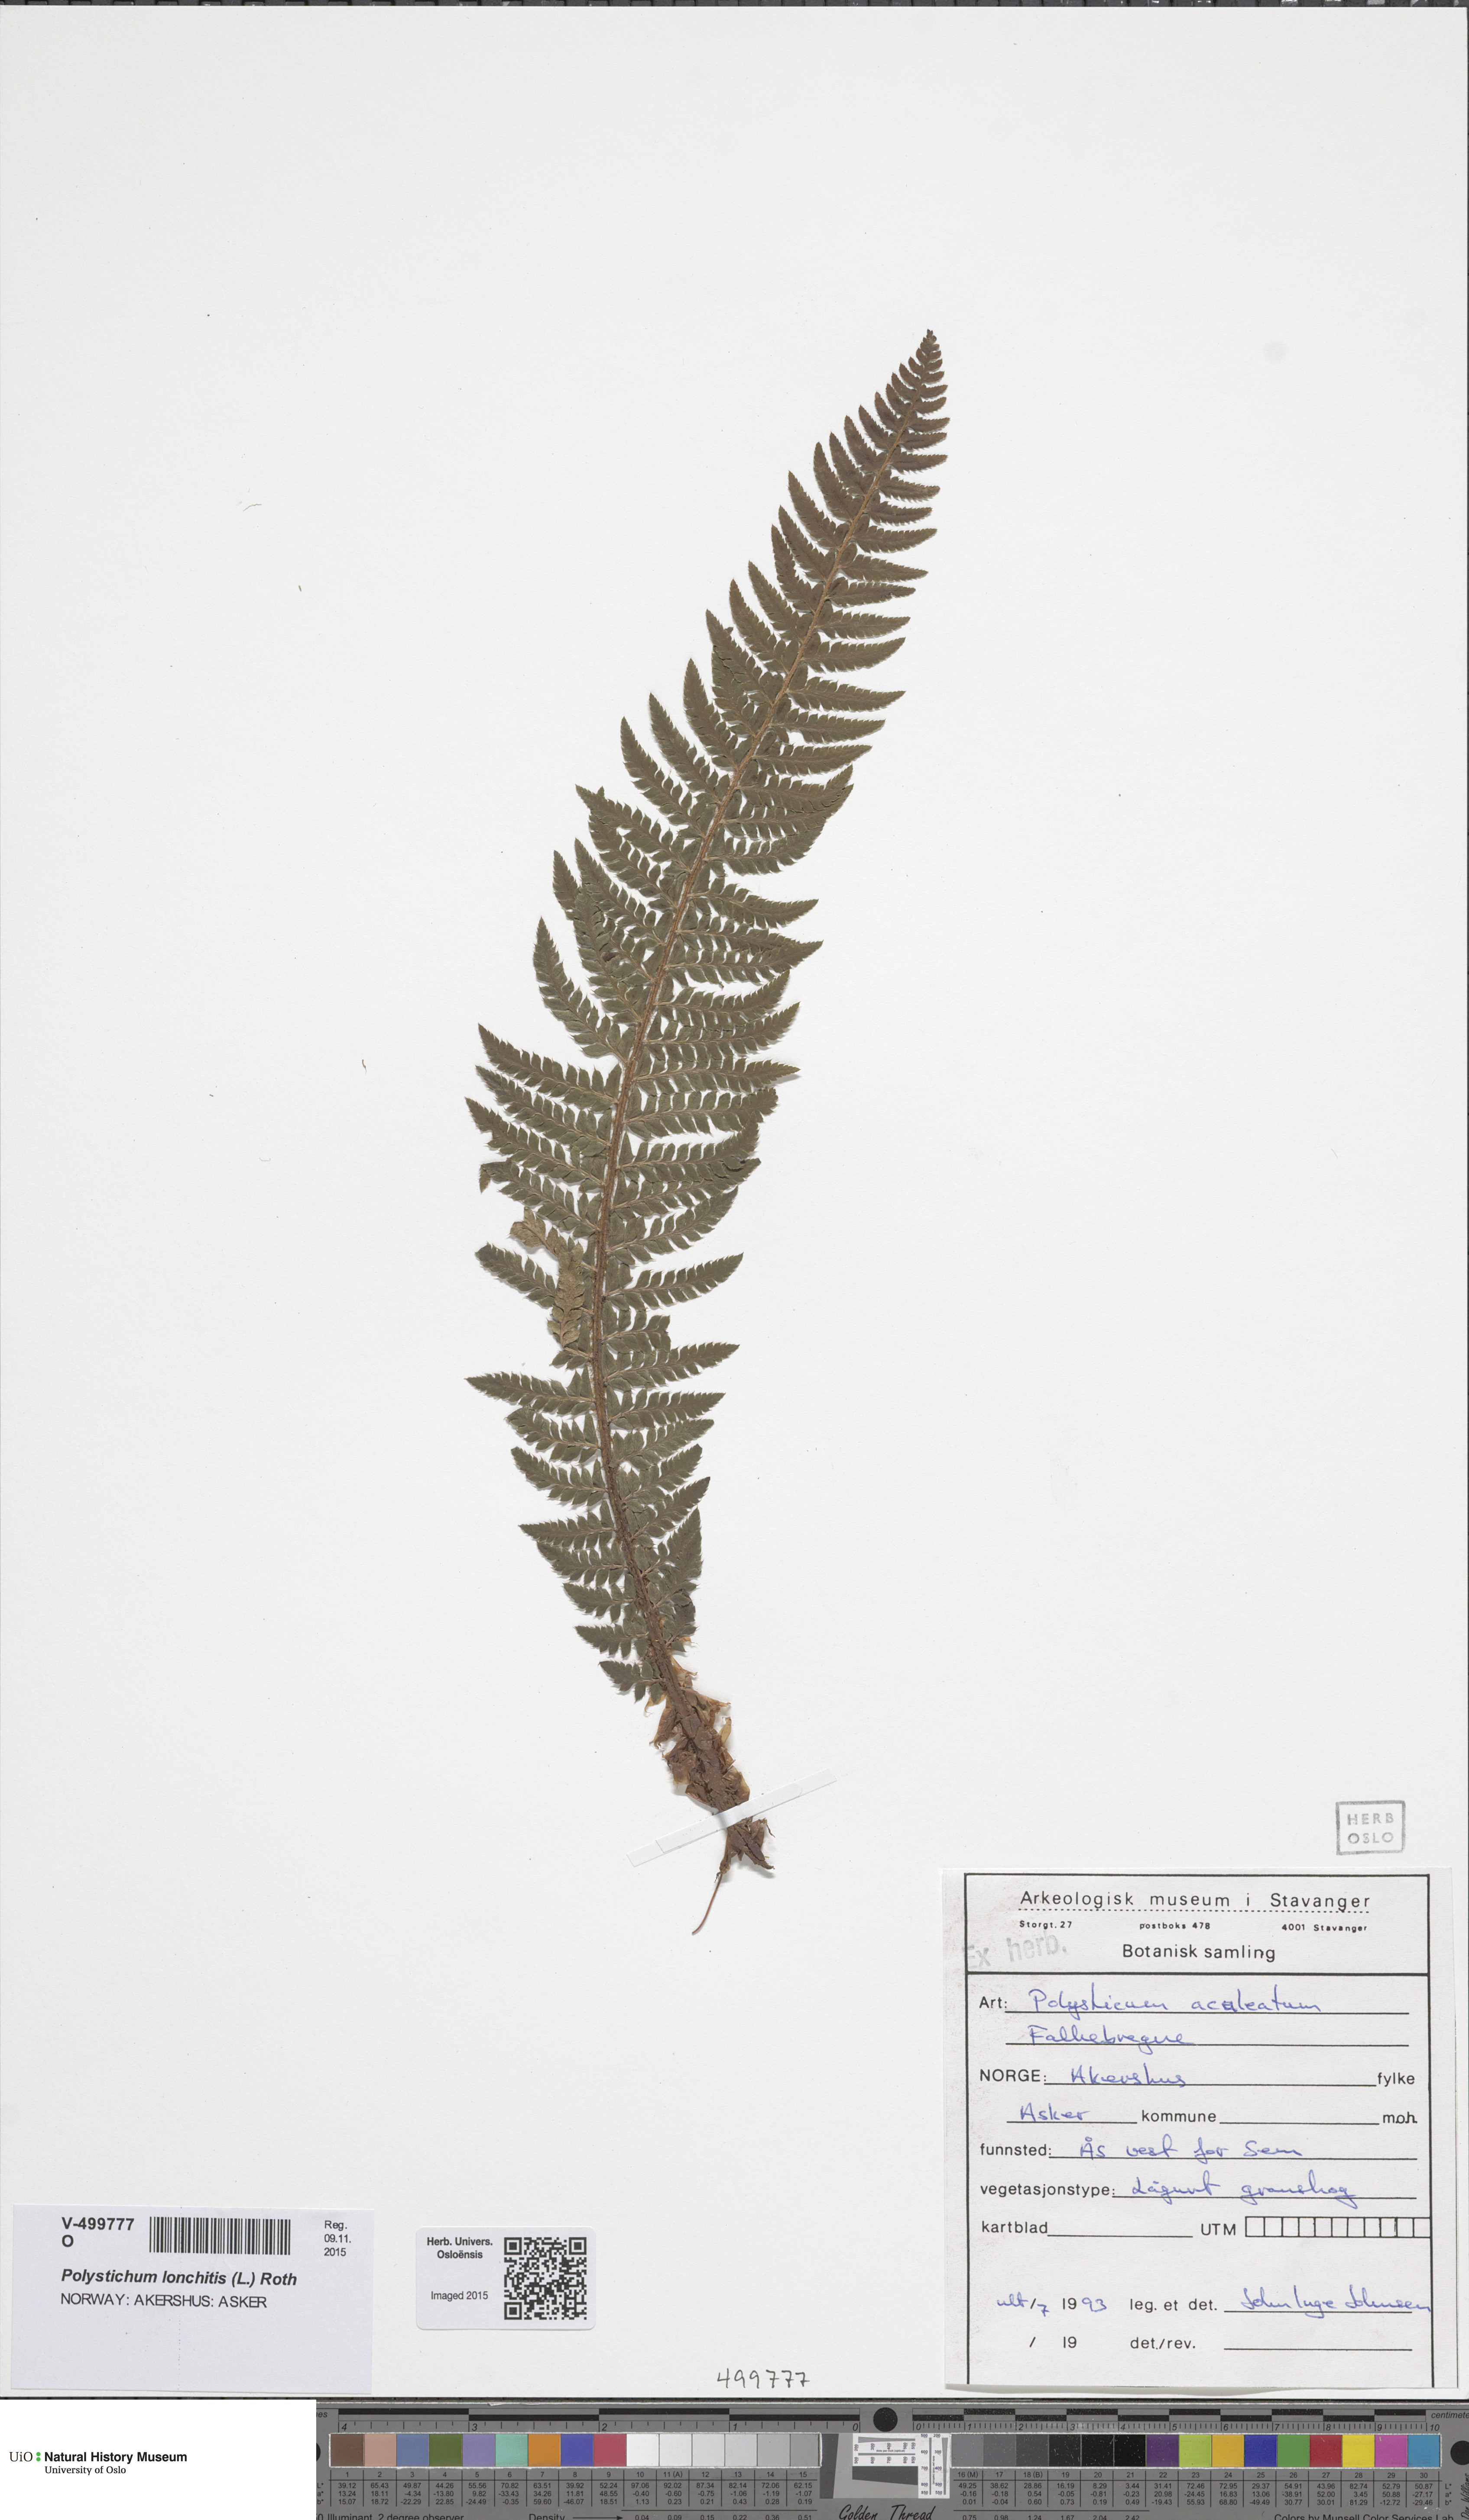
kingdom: Plantae
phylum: Tracheophyta
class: Polypodiopsida
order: Polypodiales
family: Dryopteridaceae
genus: Polystichum
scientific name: Polystichum aculeatum
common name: Hard shield-fern
